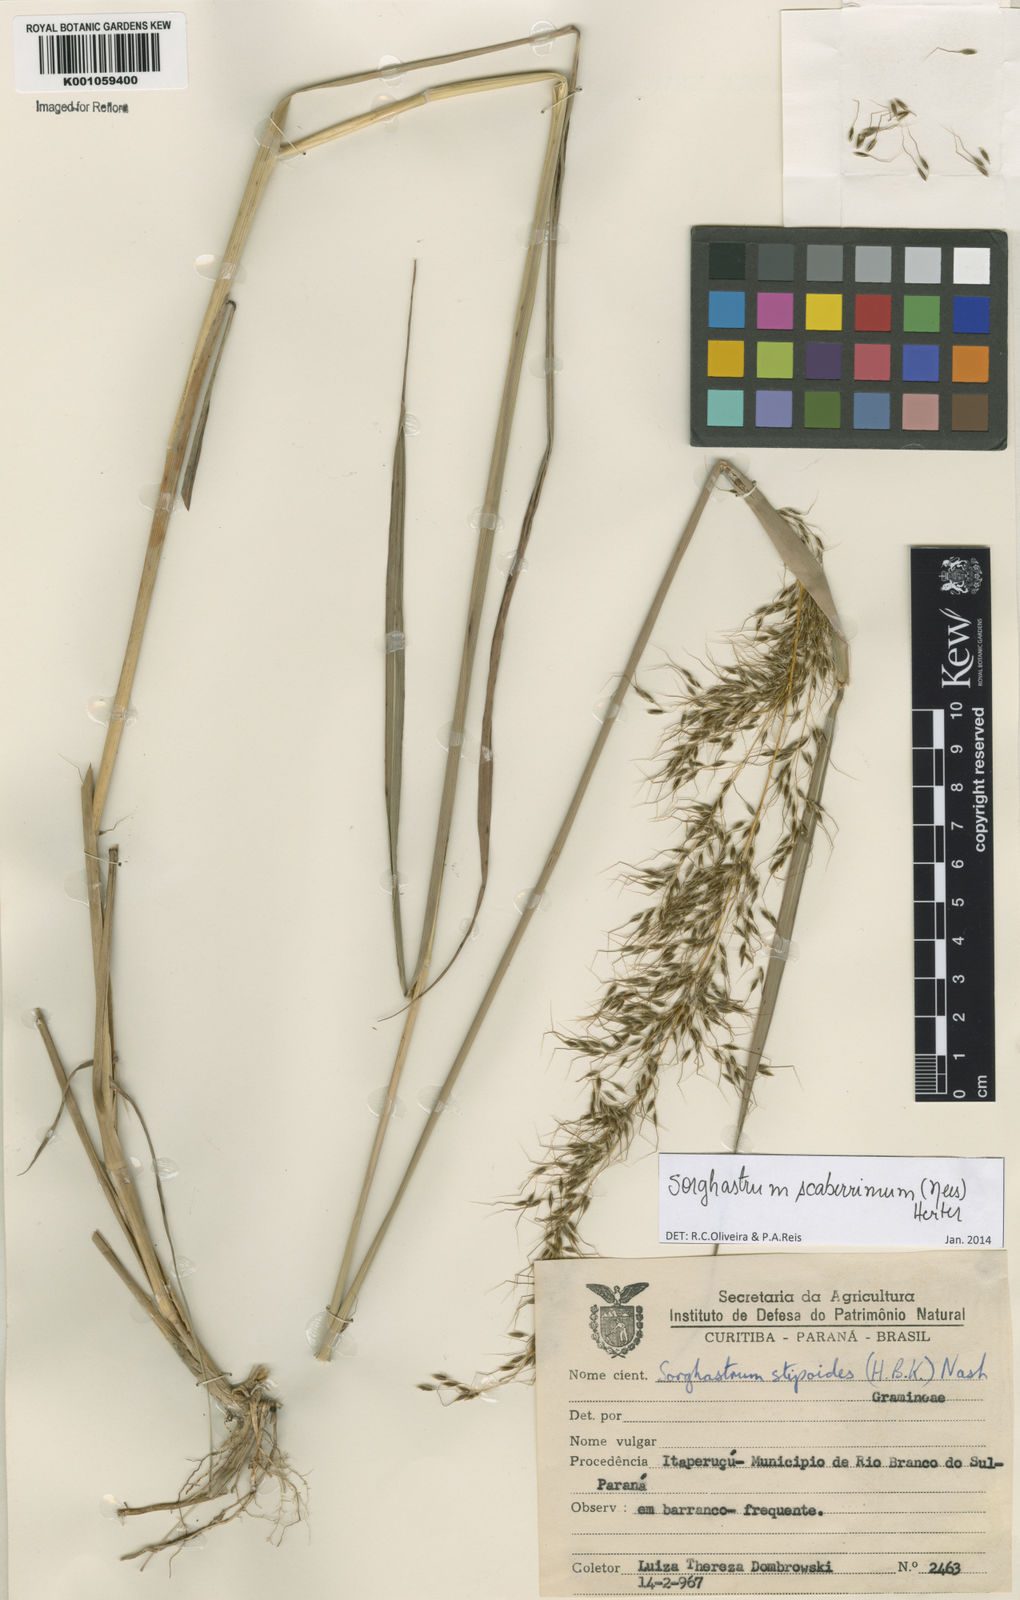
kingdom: Plantae
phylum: Tracheophyta
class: Liliopsida
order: Poales
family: Poaceae
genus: Sorghastrum
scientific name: Sorghastrum scaberrimum
